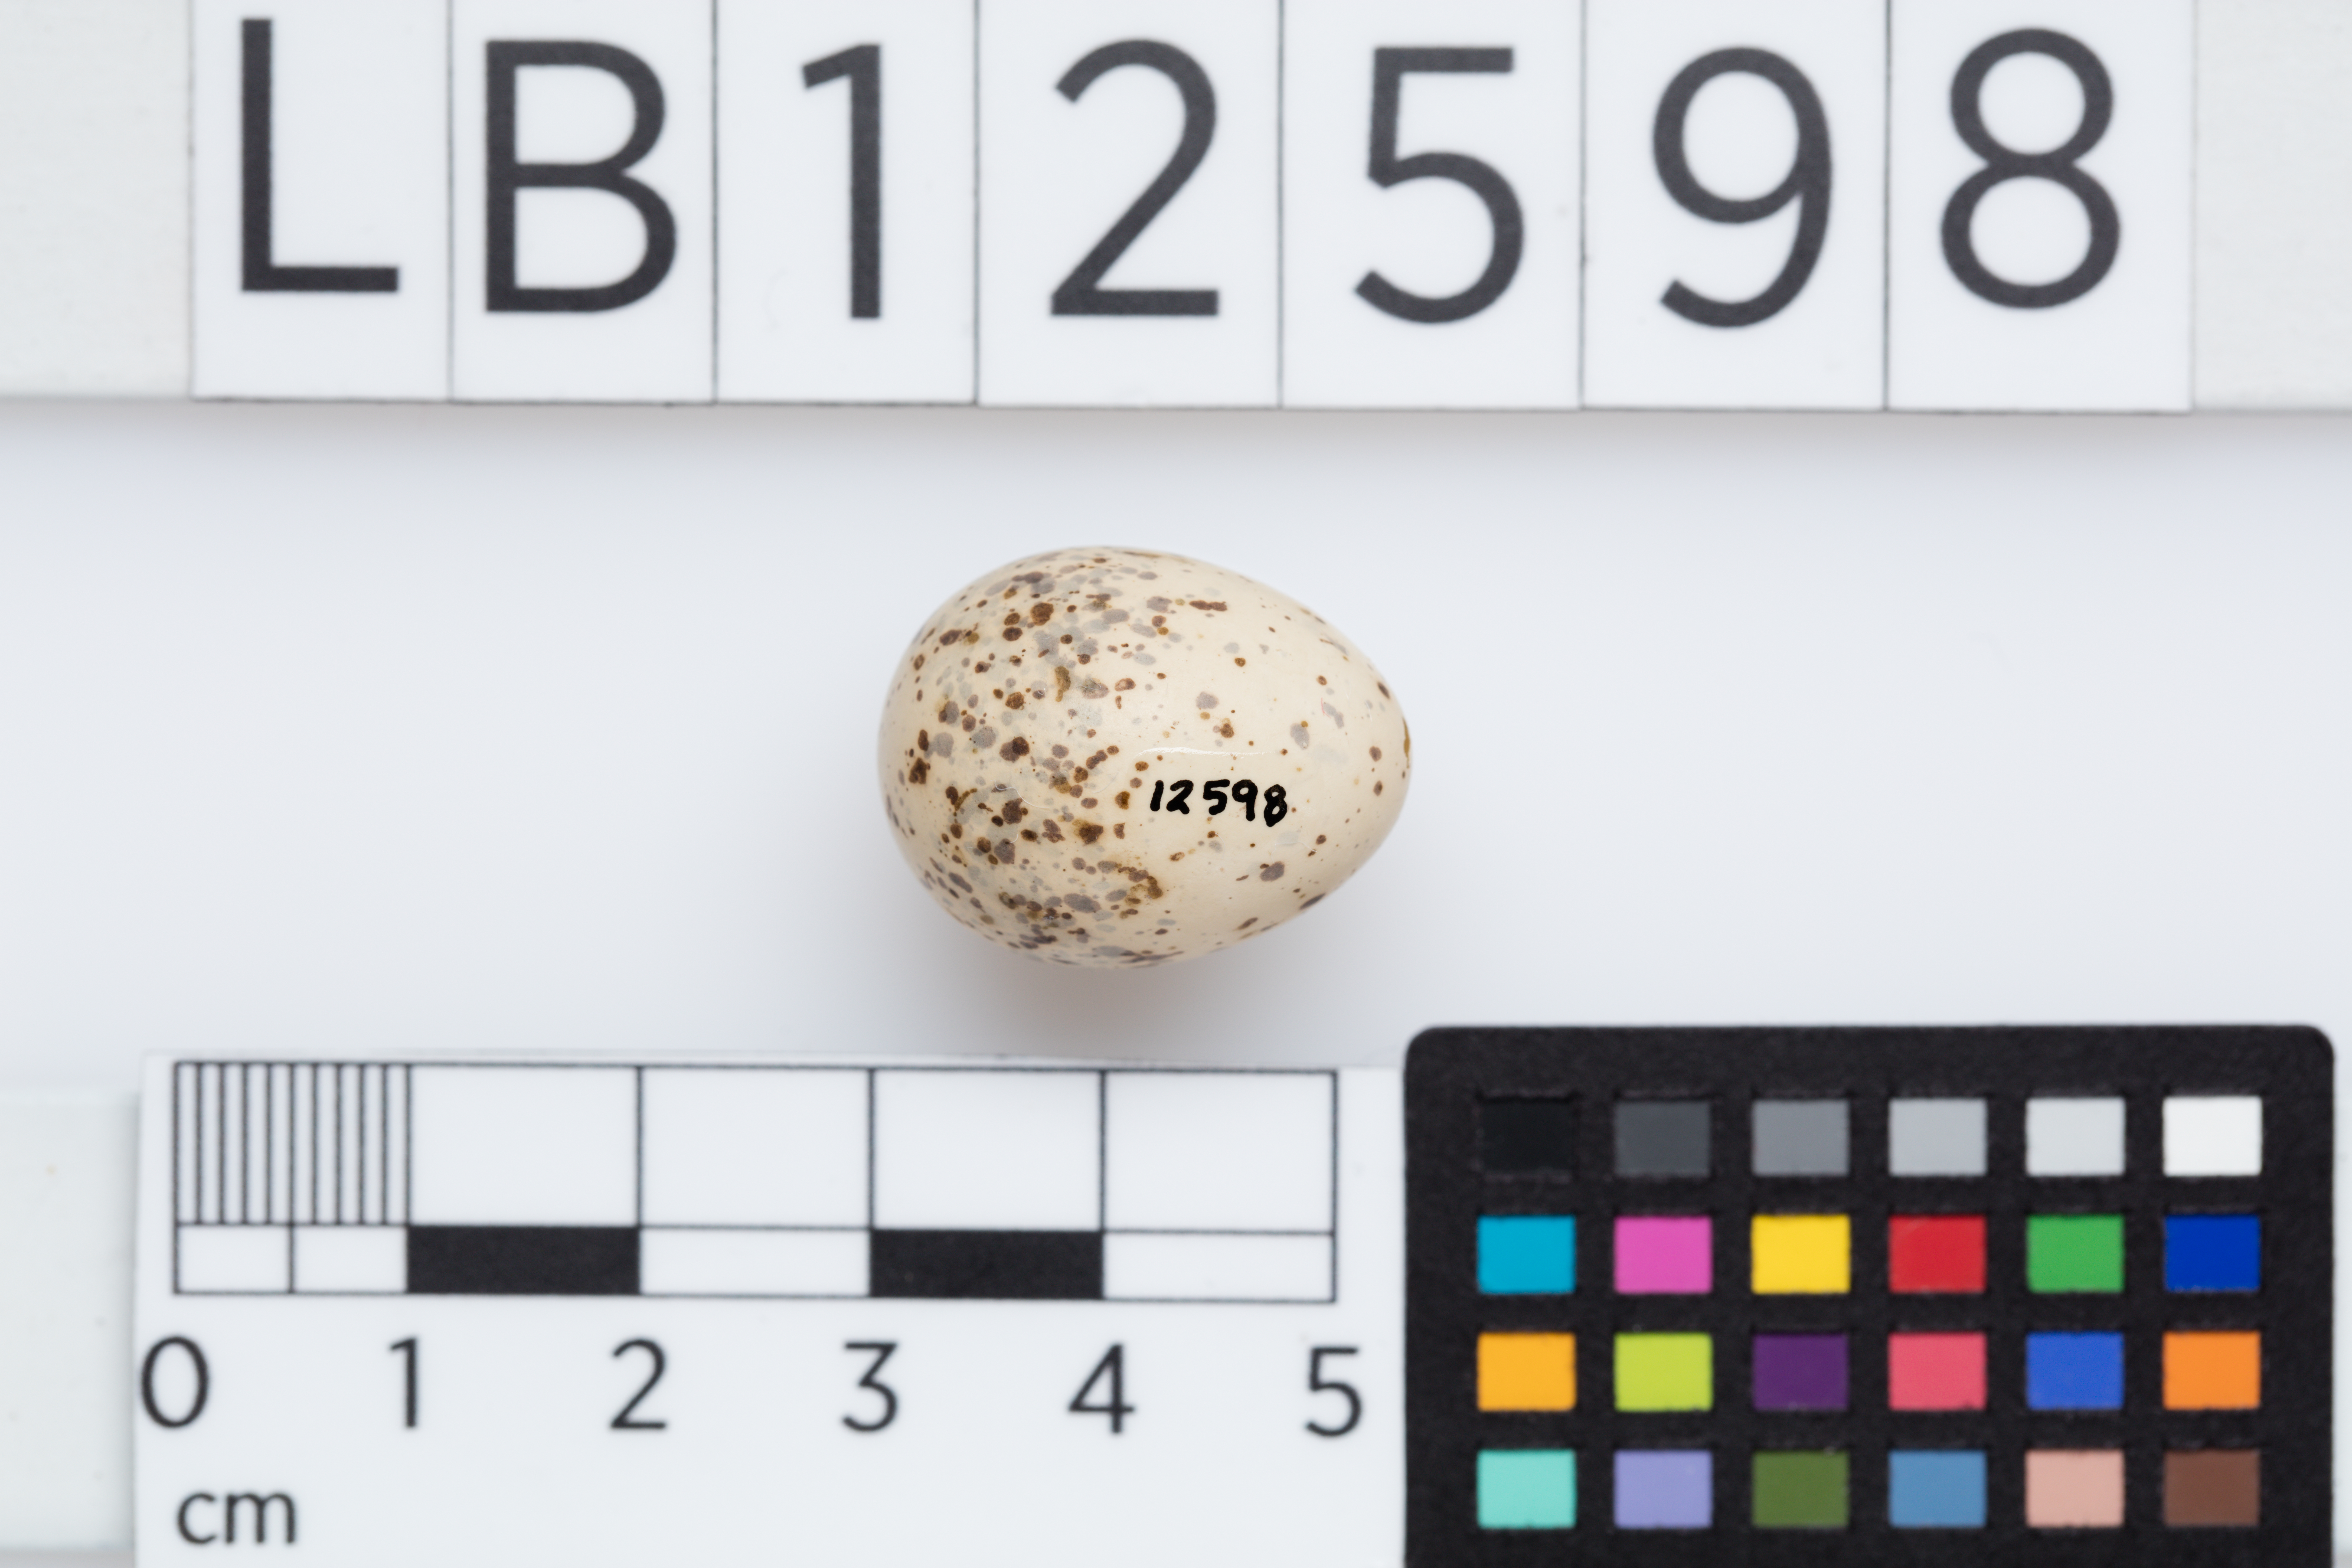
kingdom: Animalia
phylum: Chordata
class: Aves
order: Passeriformes
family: Artamidae
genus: Artamus
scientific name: Artamus cyanopterus
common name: Dusky woodswallow
